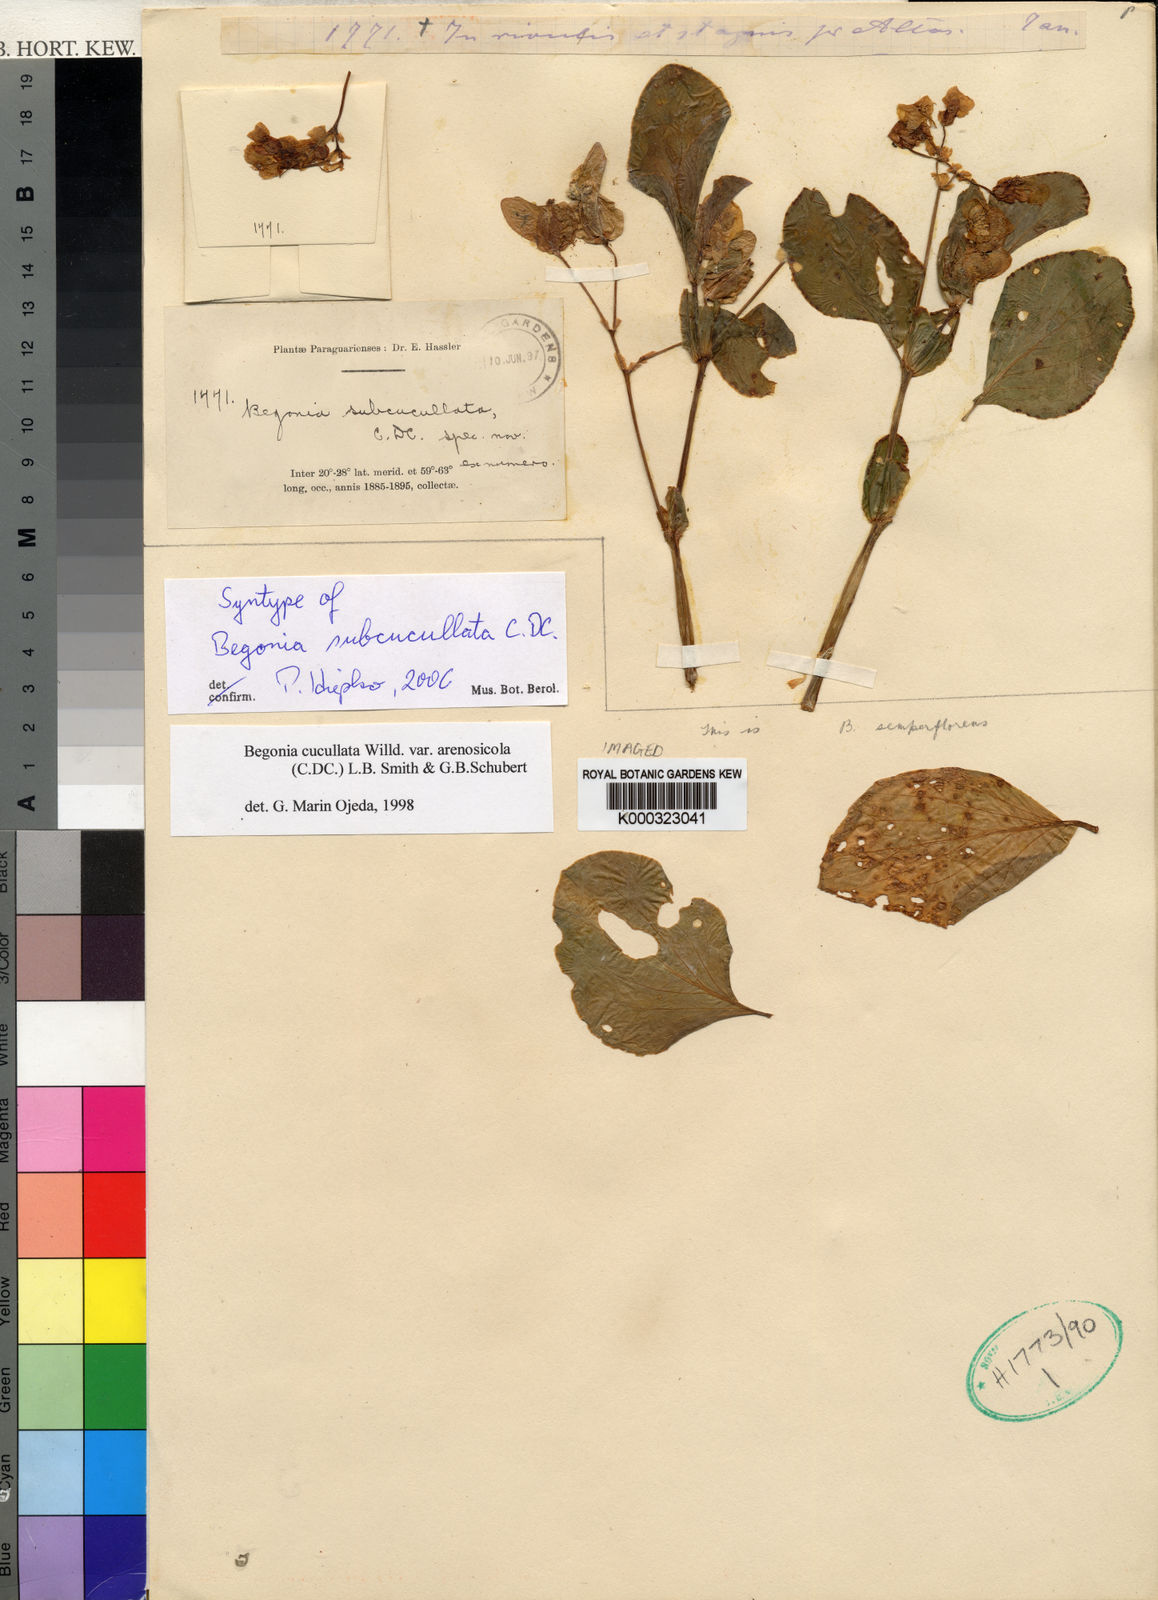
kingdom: Plantae
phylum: Tracheophyta
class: Magnoliopsida
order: Cucurbitales
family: Begoniaceae
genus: Begonia
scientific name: Begonia
